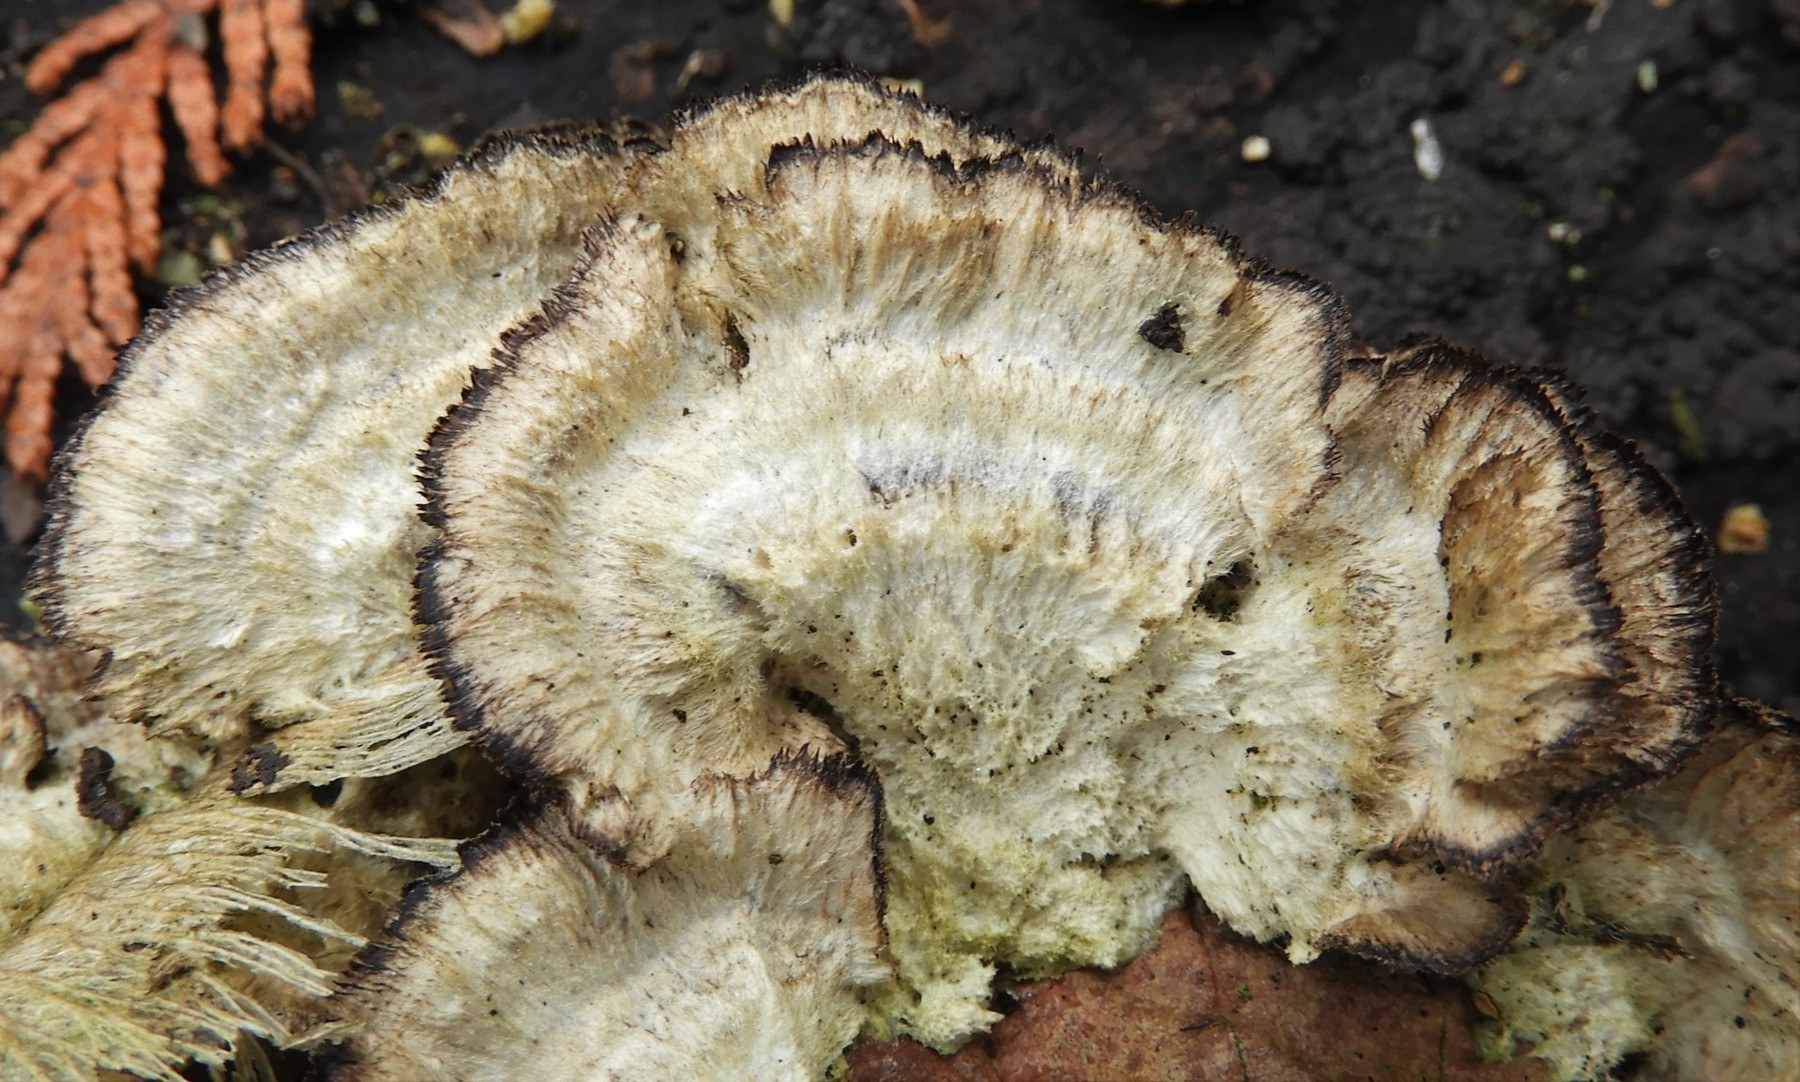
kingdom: Fungi
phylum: Basidiomycota
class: Agaricomycetes
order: Polyporales
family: Phanerochaetaceae
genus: Bjerkandera
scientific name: Bjerkandera adusta
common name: sveden sodporesvamp
